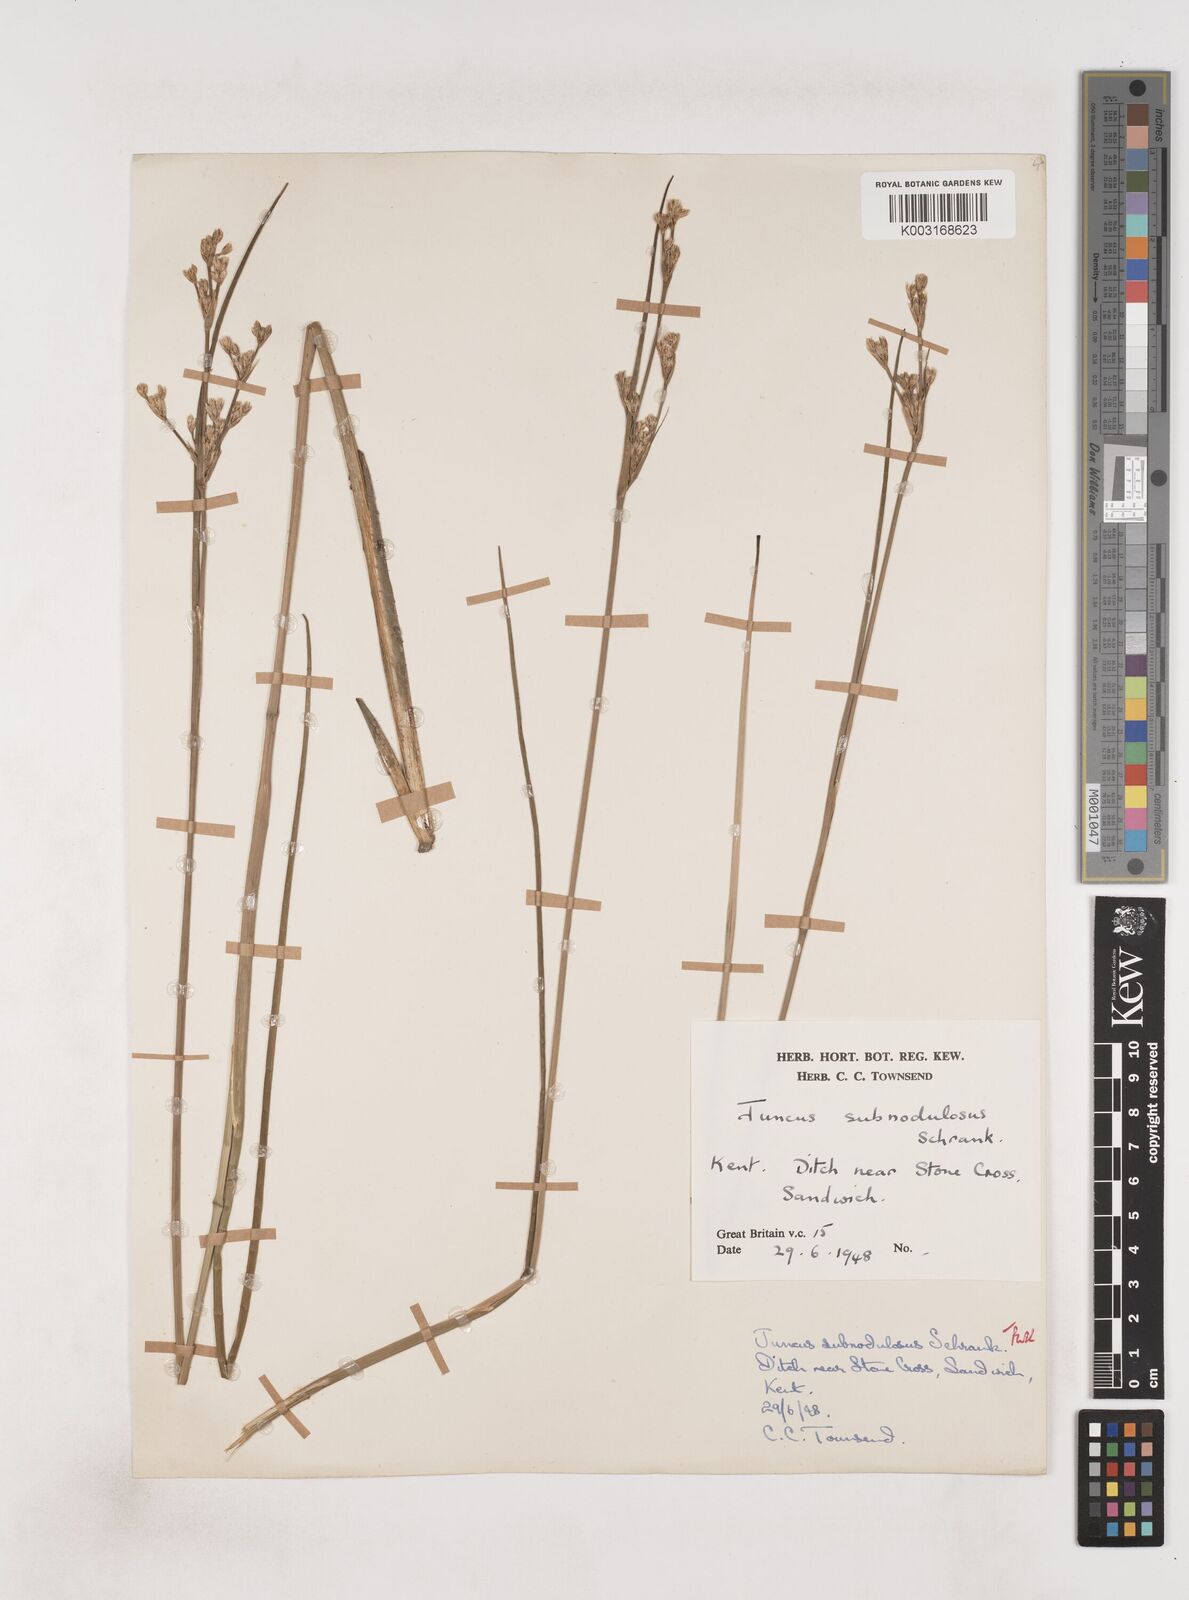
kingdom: Plantae
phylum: Tracheophyta
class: Liliopsida
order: Poales
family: Juncaceae
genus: Juncus
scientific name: Juncus subnodulosus
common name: Blunt-flowered rush
